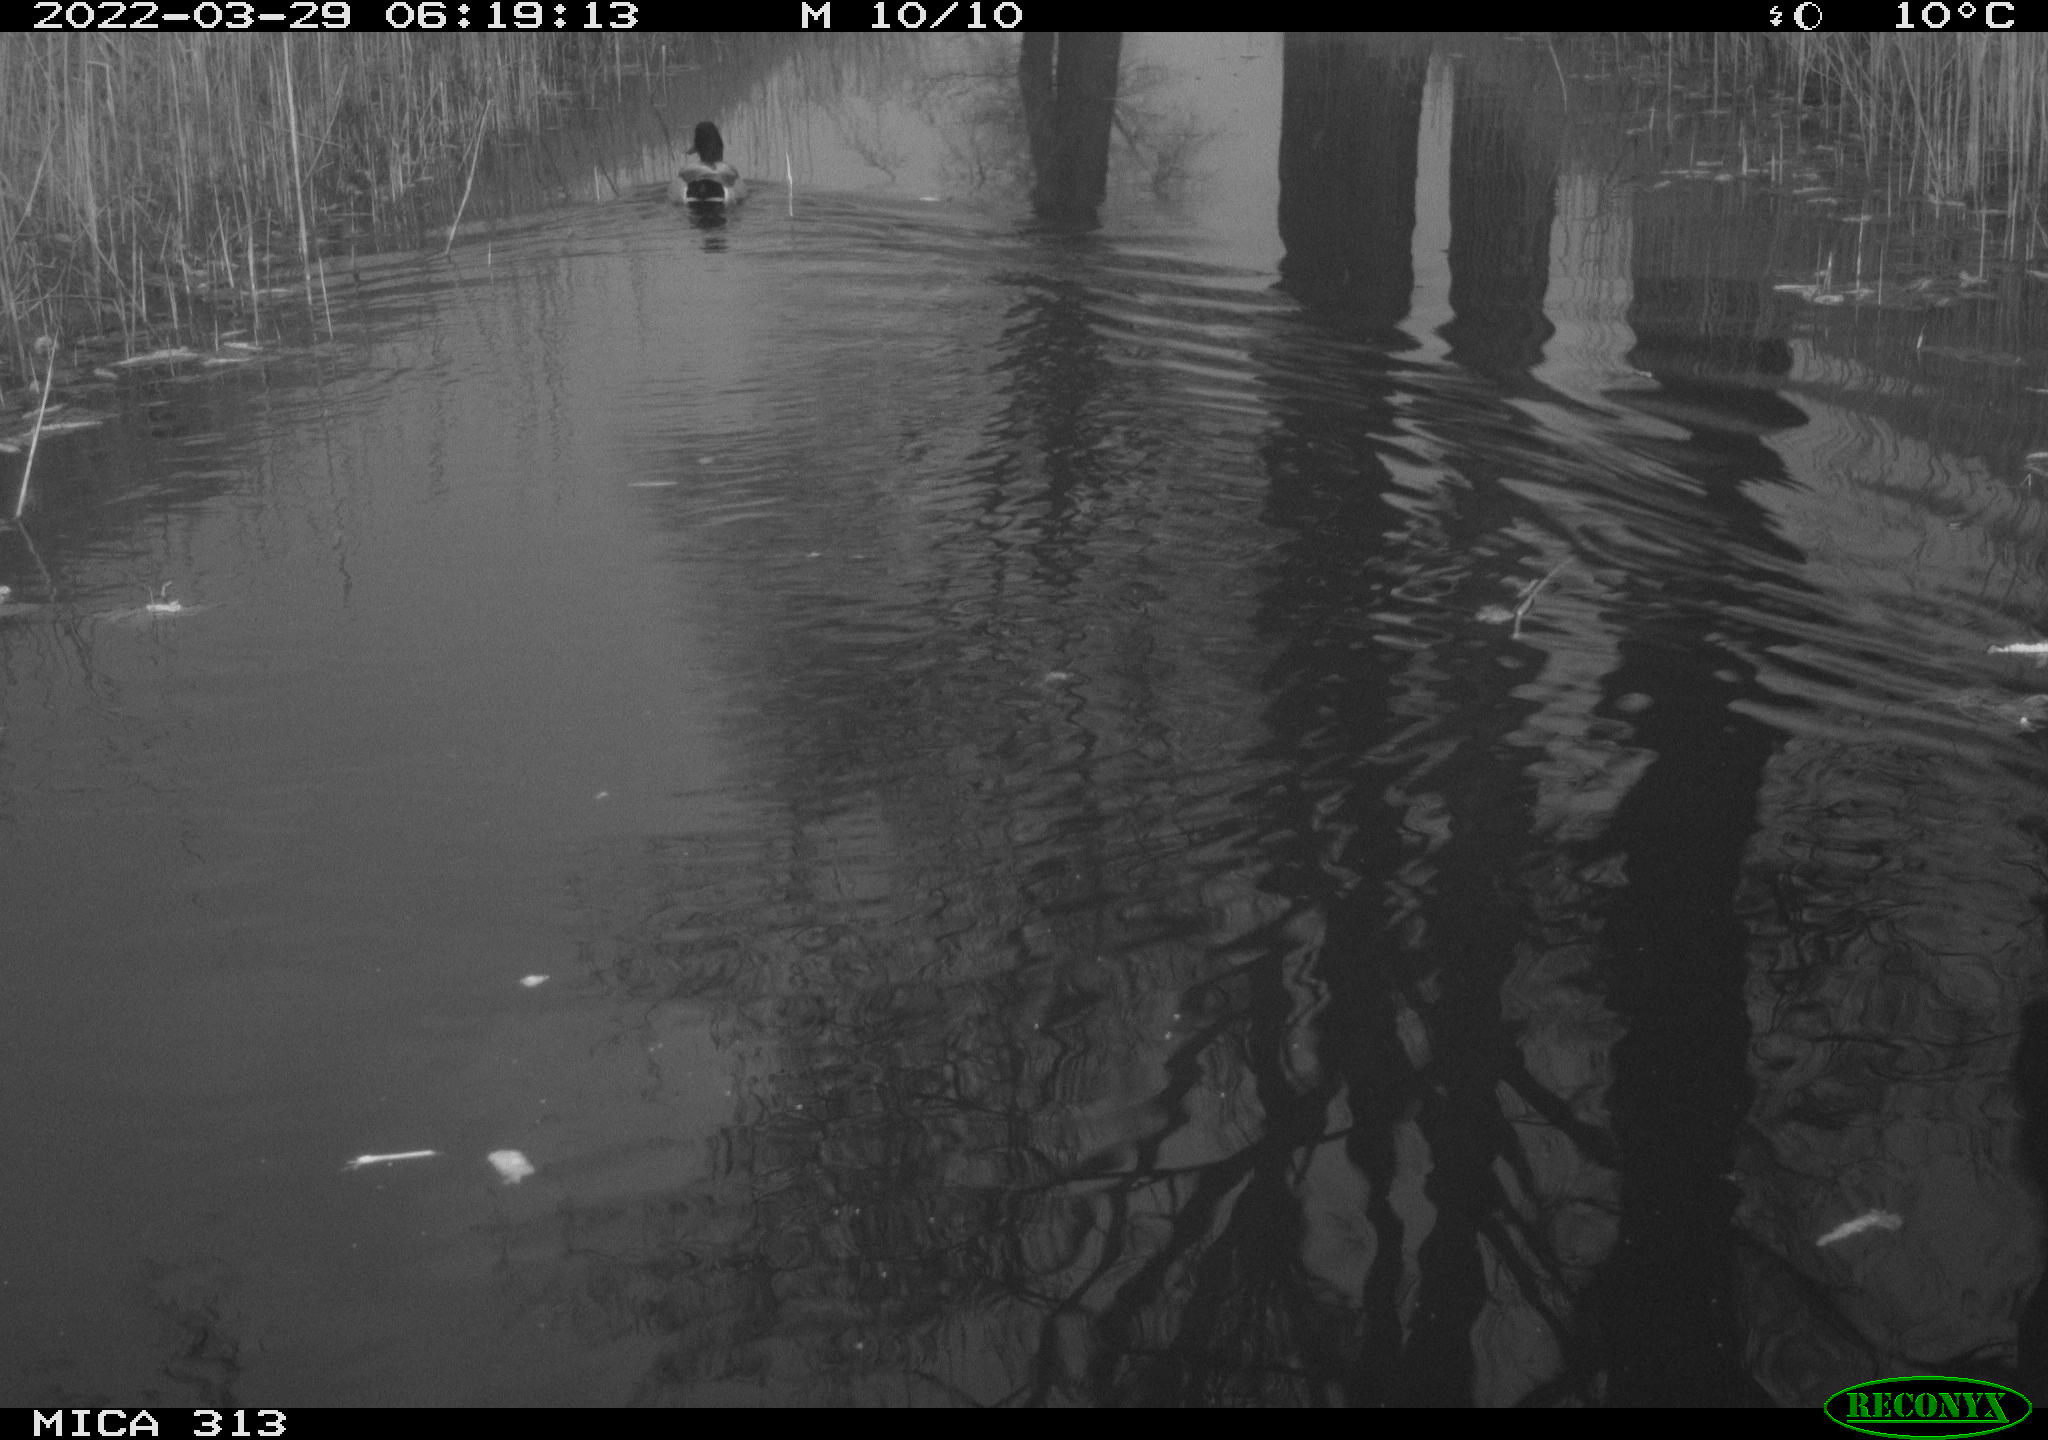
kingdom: Animalia
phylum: Chordata
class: Aves
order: Anseriformes
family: Anatidae
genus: Anas
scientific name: Anas platyrhynchos
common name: Mallard
